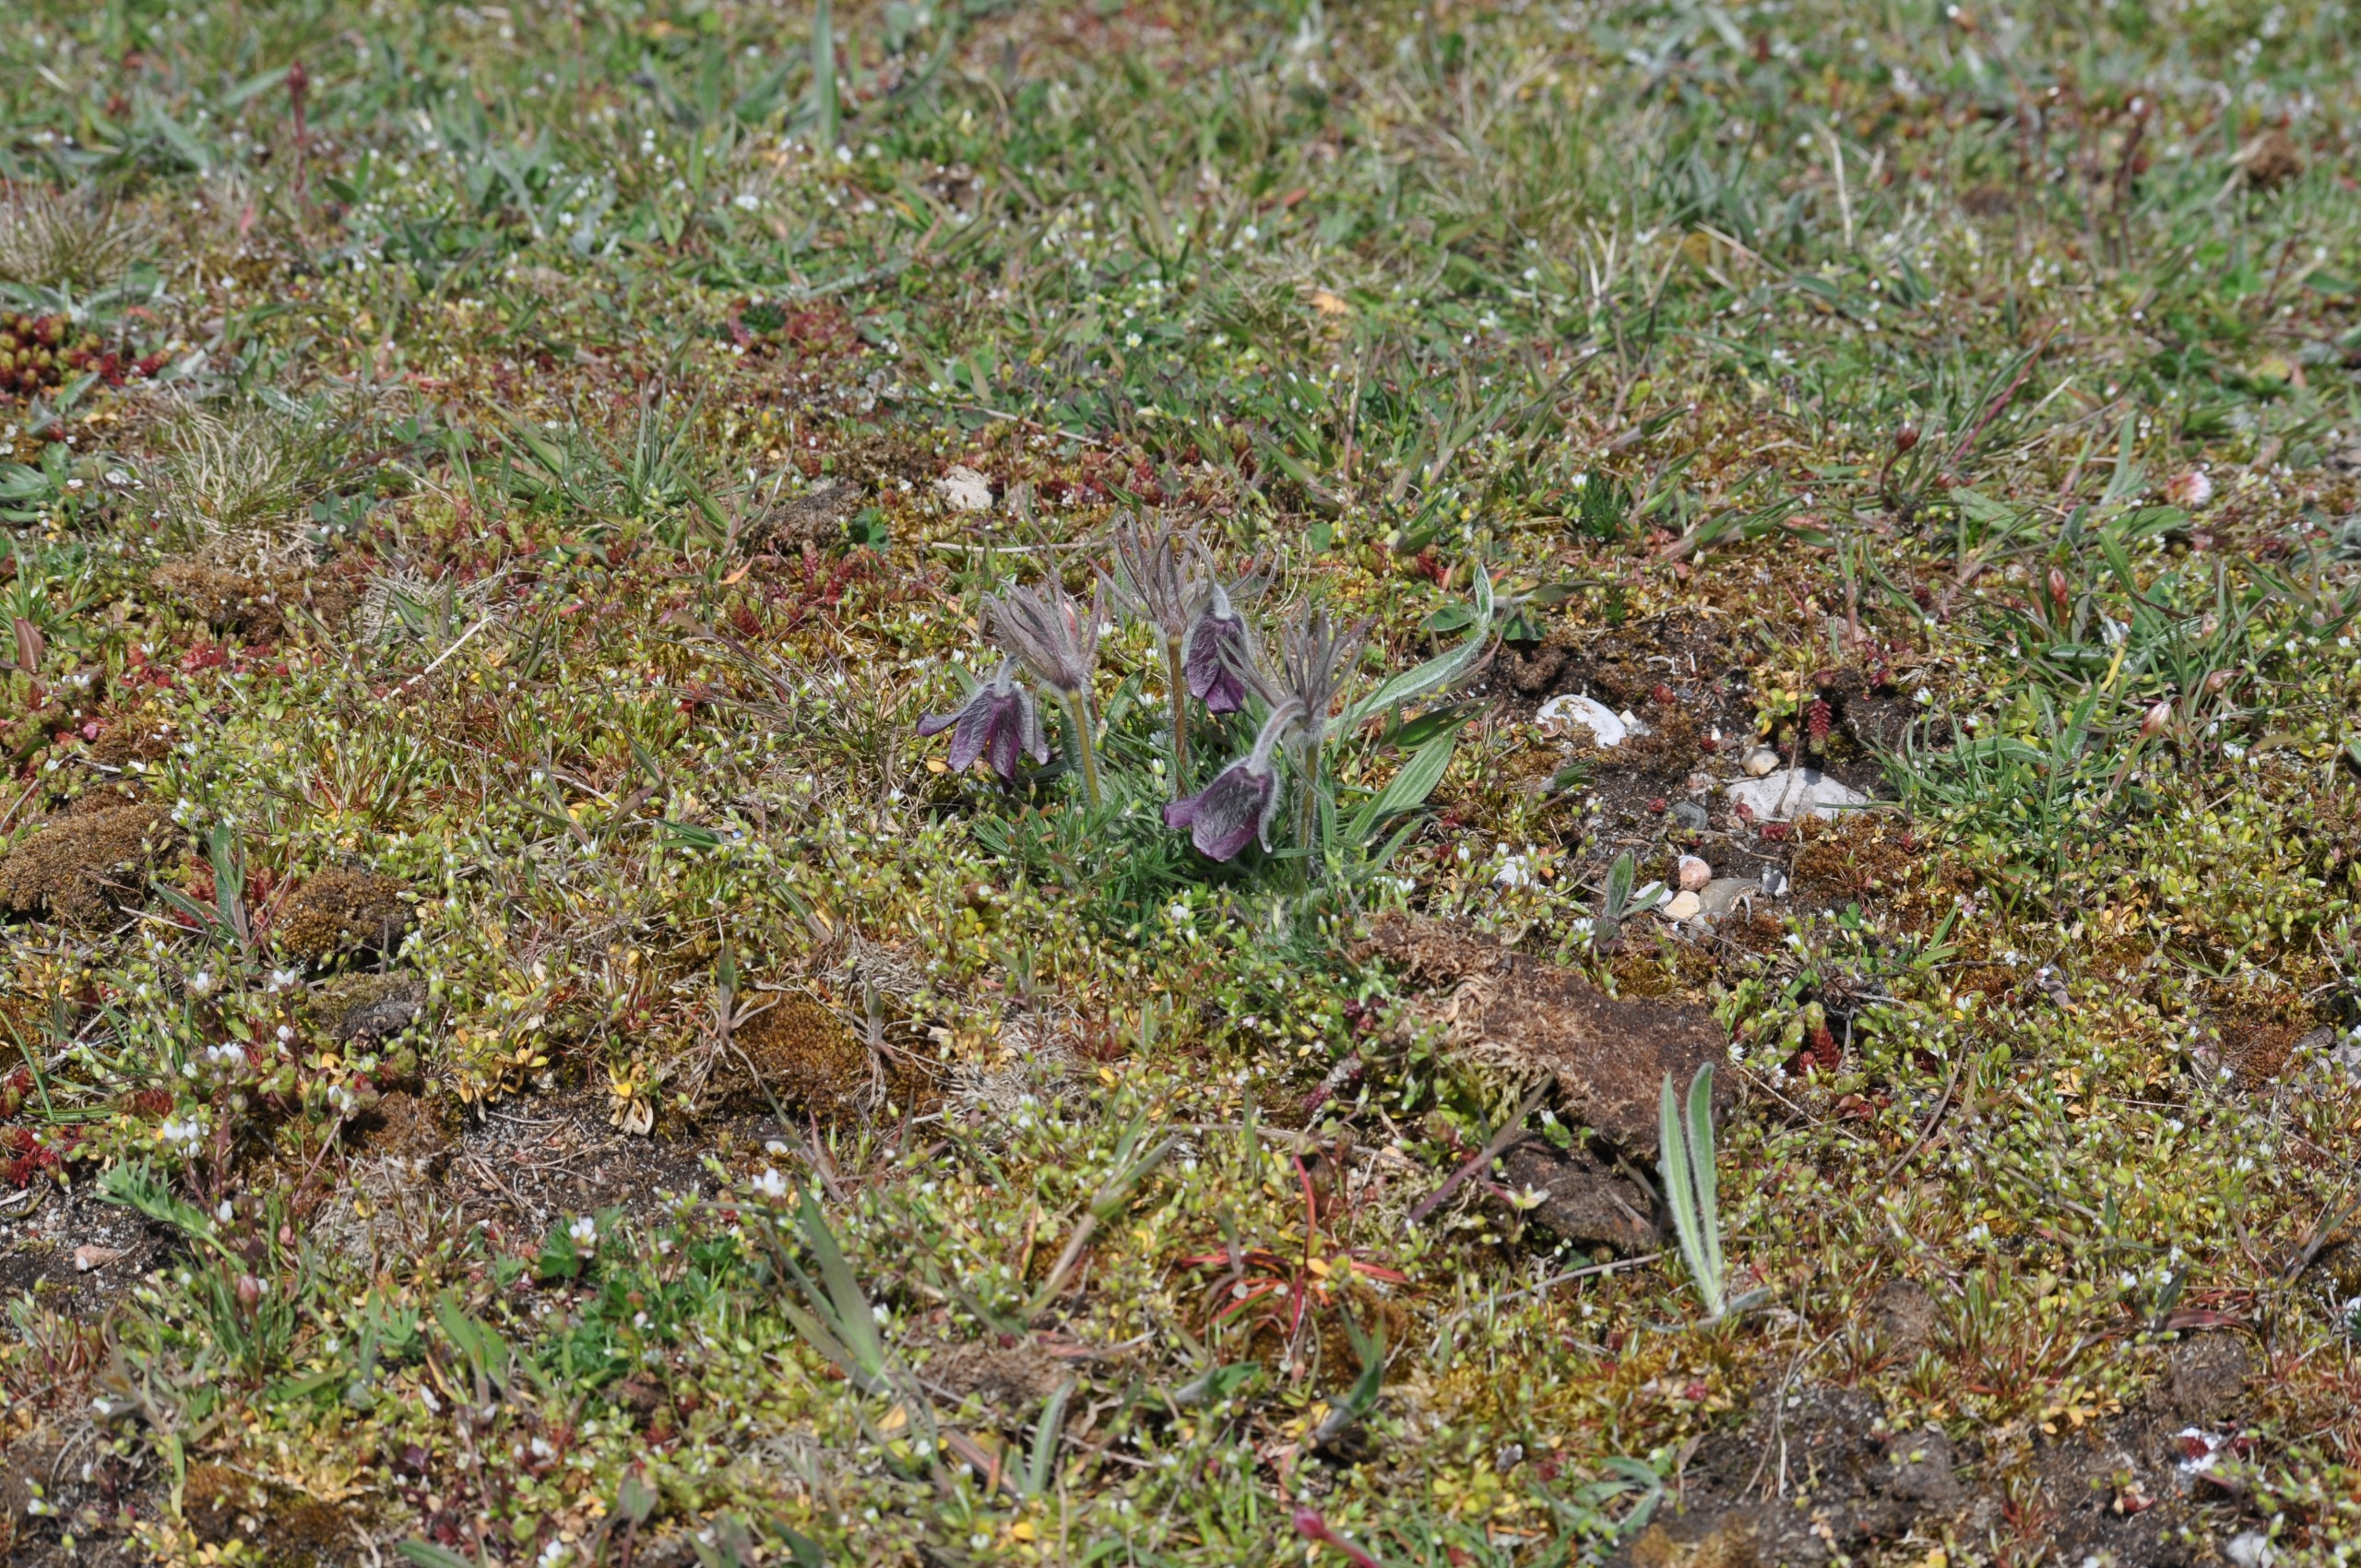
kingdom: Plantae
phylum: Tracheophyta
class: Magnoliopsida
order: Ranunculales
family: Ranunculaceae
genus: Pulsatilla
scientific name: Pulsatilla pratensis
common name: Nikkende kobjælde
